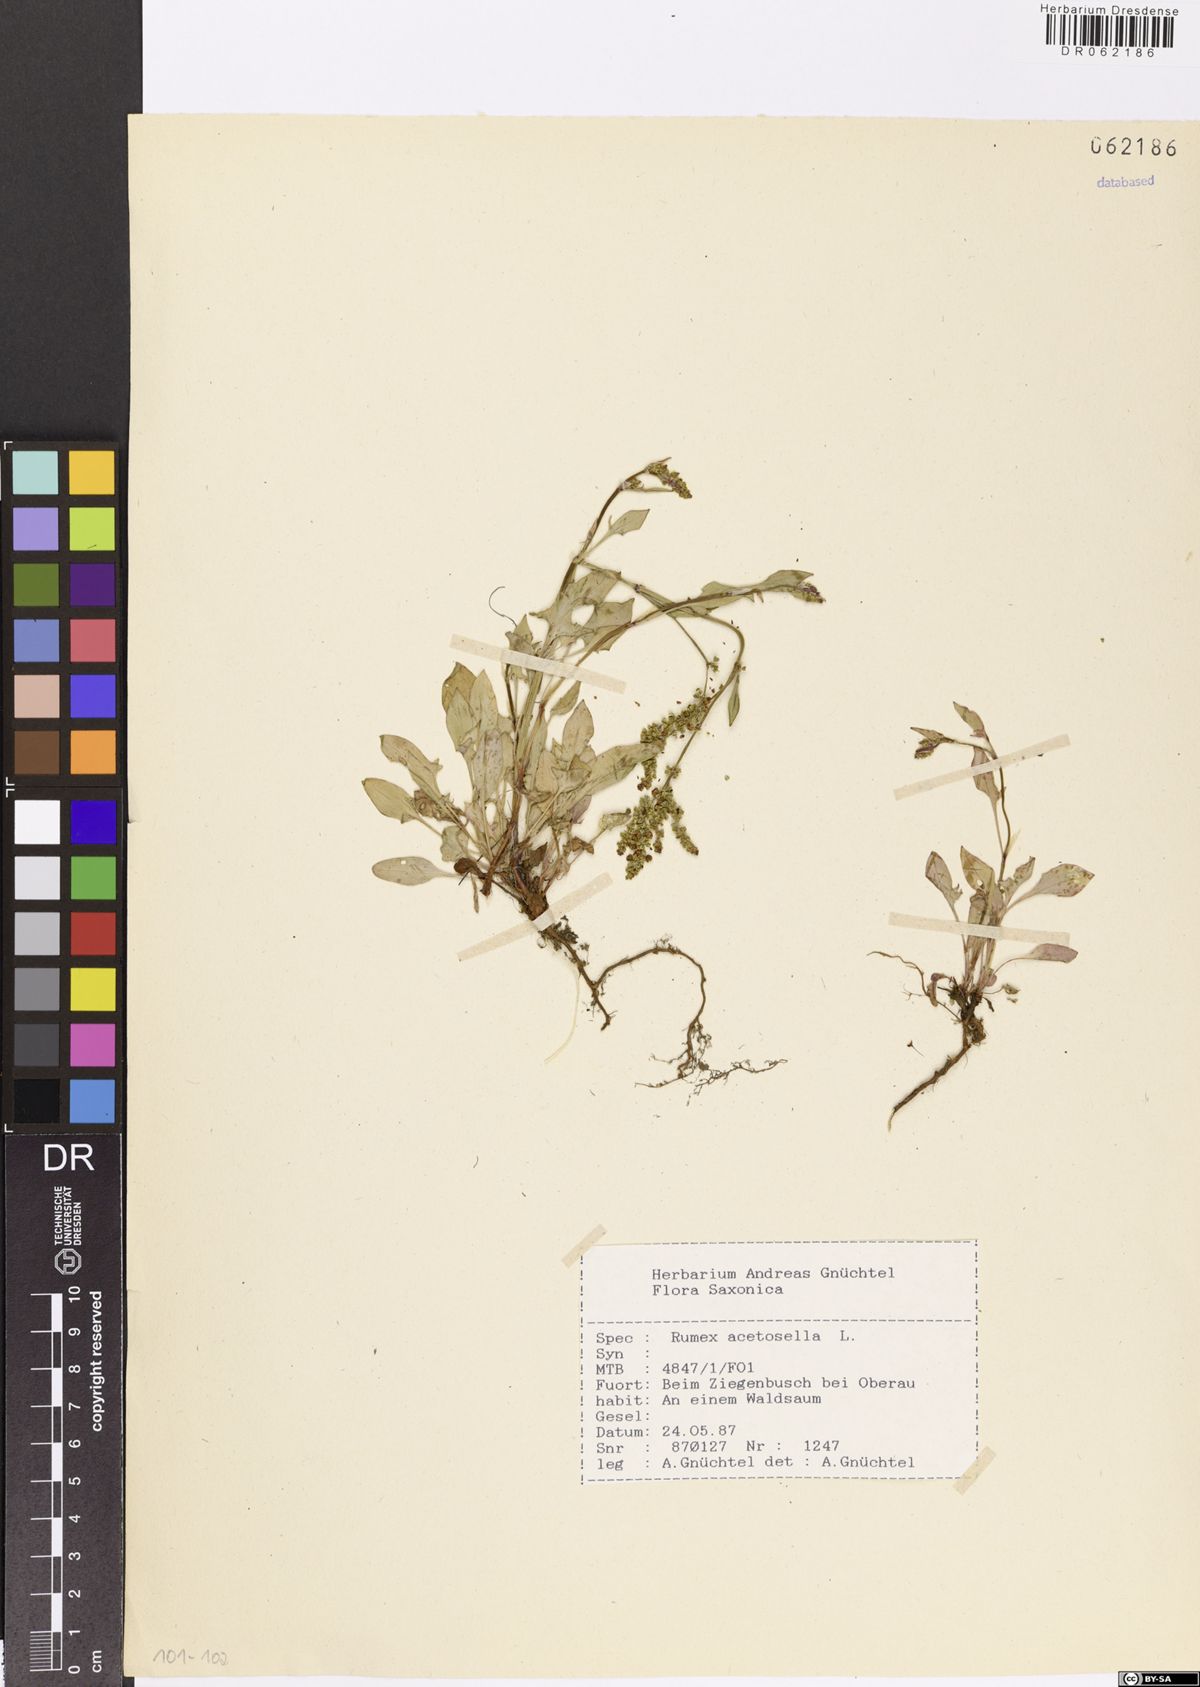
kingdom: Plantae
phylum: Tracheophyta
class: Magnoliopsida
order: Caryophyllales
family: Polygonaceae
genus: Rumex
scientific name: Rumex acetosella
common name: Common sheep sorrel
